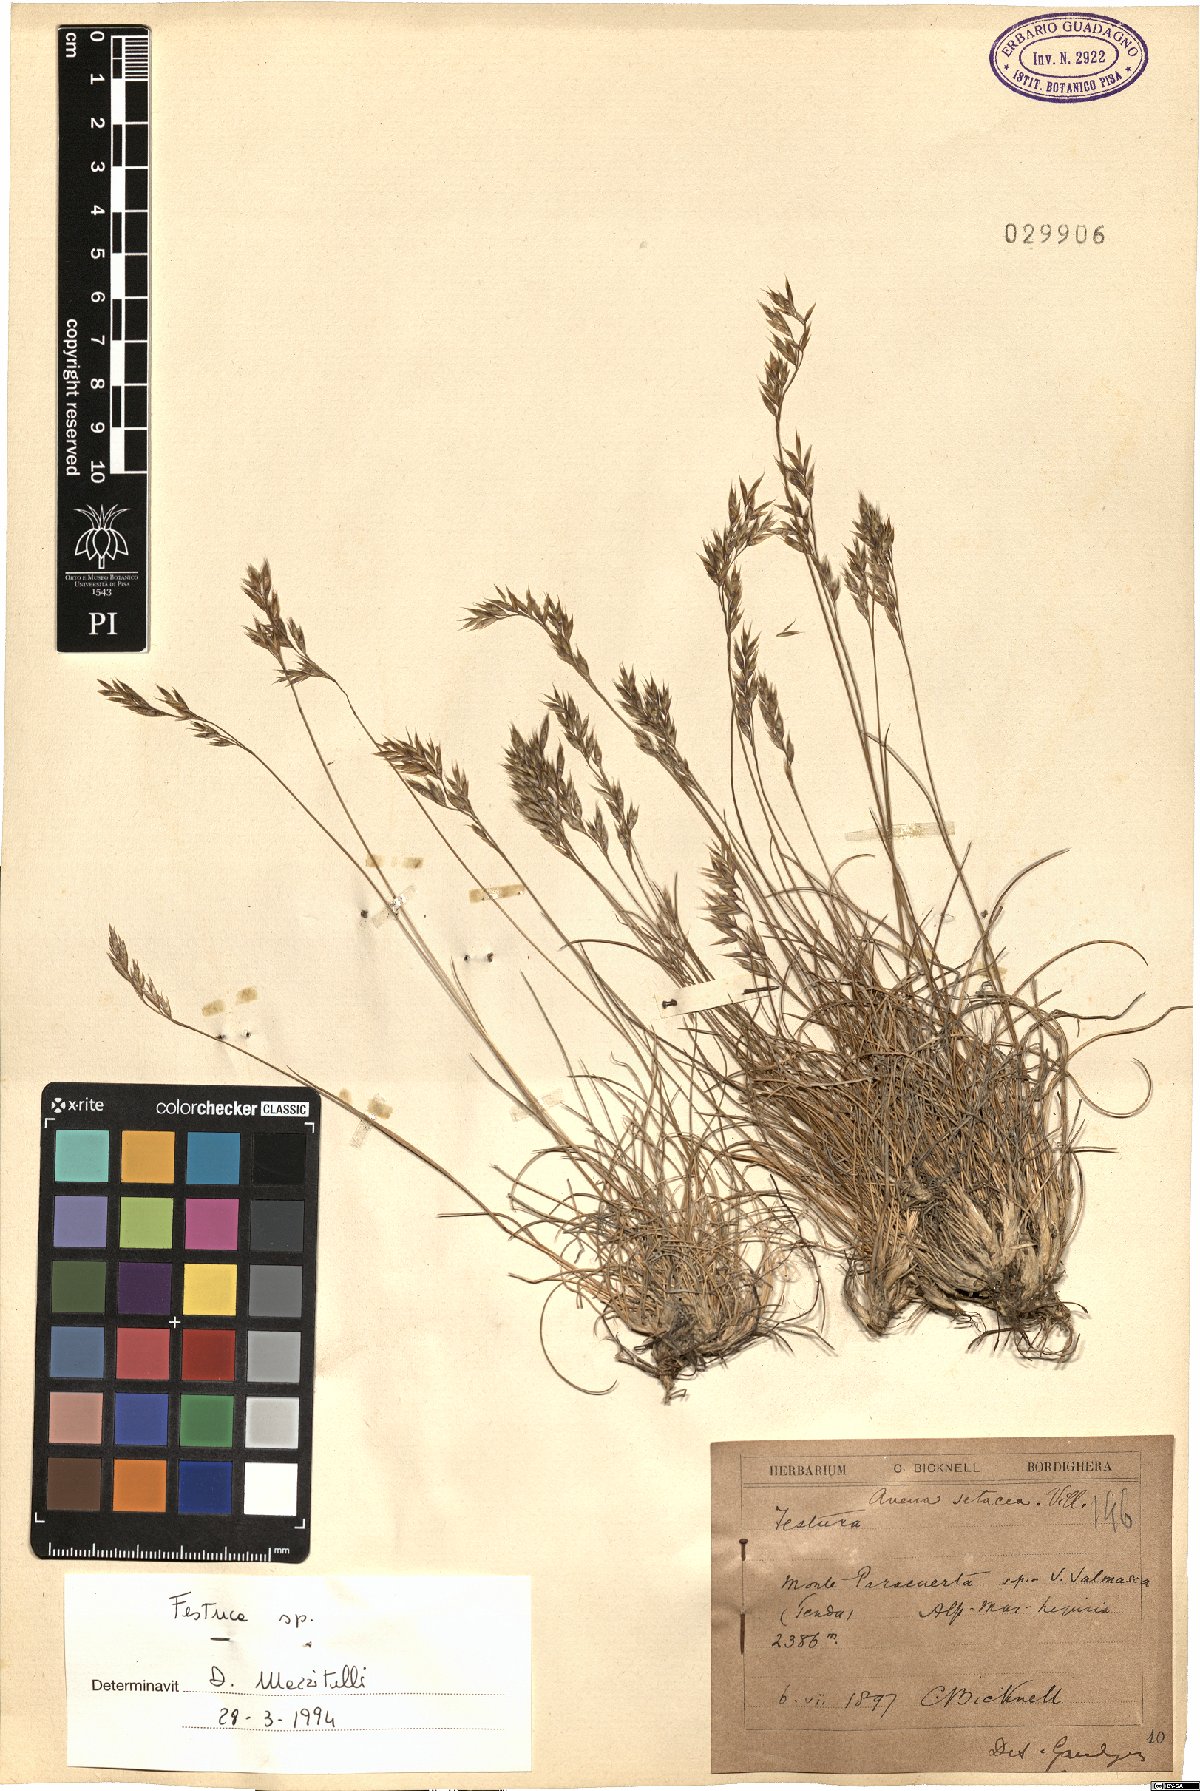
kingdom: Plantae
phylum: Tracheophyta
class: Liliopsida
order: Poales
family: Poaceae
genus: Festuca
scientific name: Festuca
